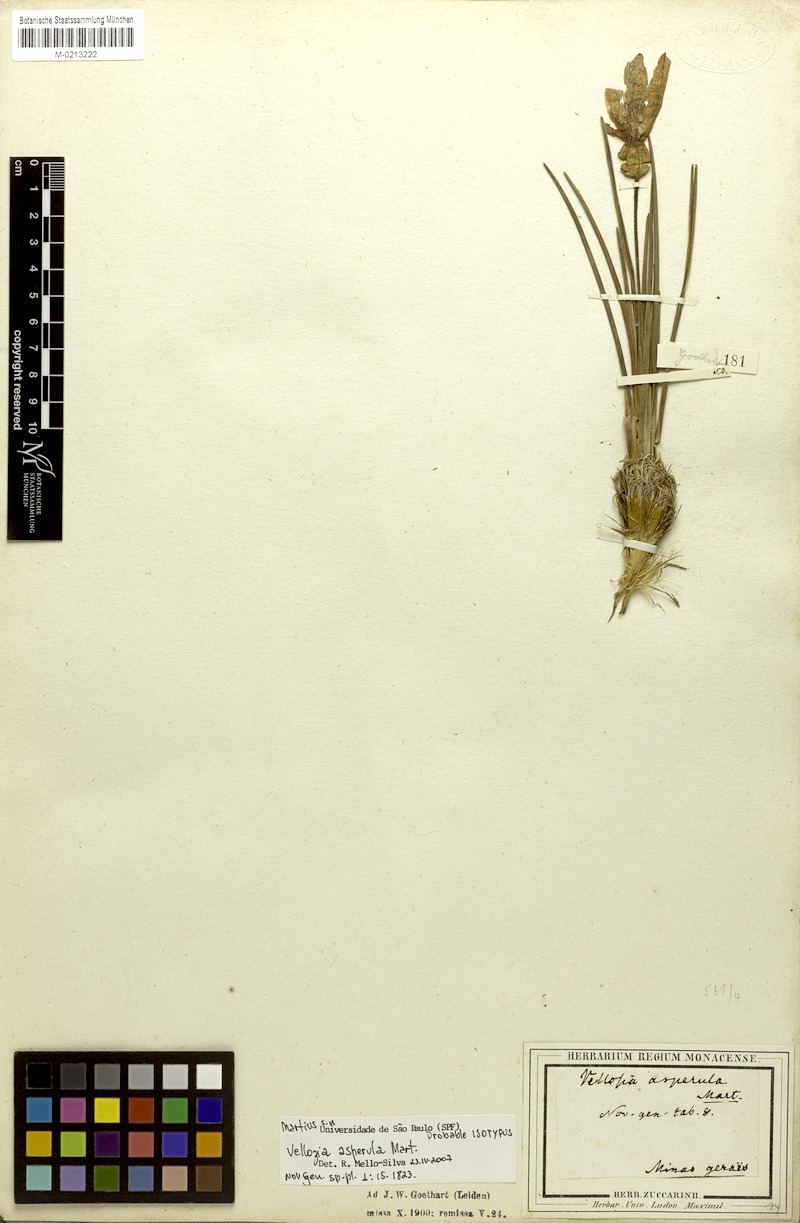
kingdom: Plantae
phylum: Tracheophyta
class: Liliopsida
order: Pandanales
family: Velloziaceae
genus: Vellozia
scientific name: Vellozia asperula
